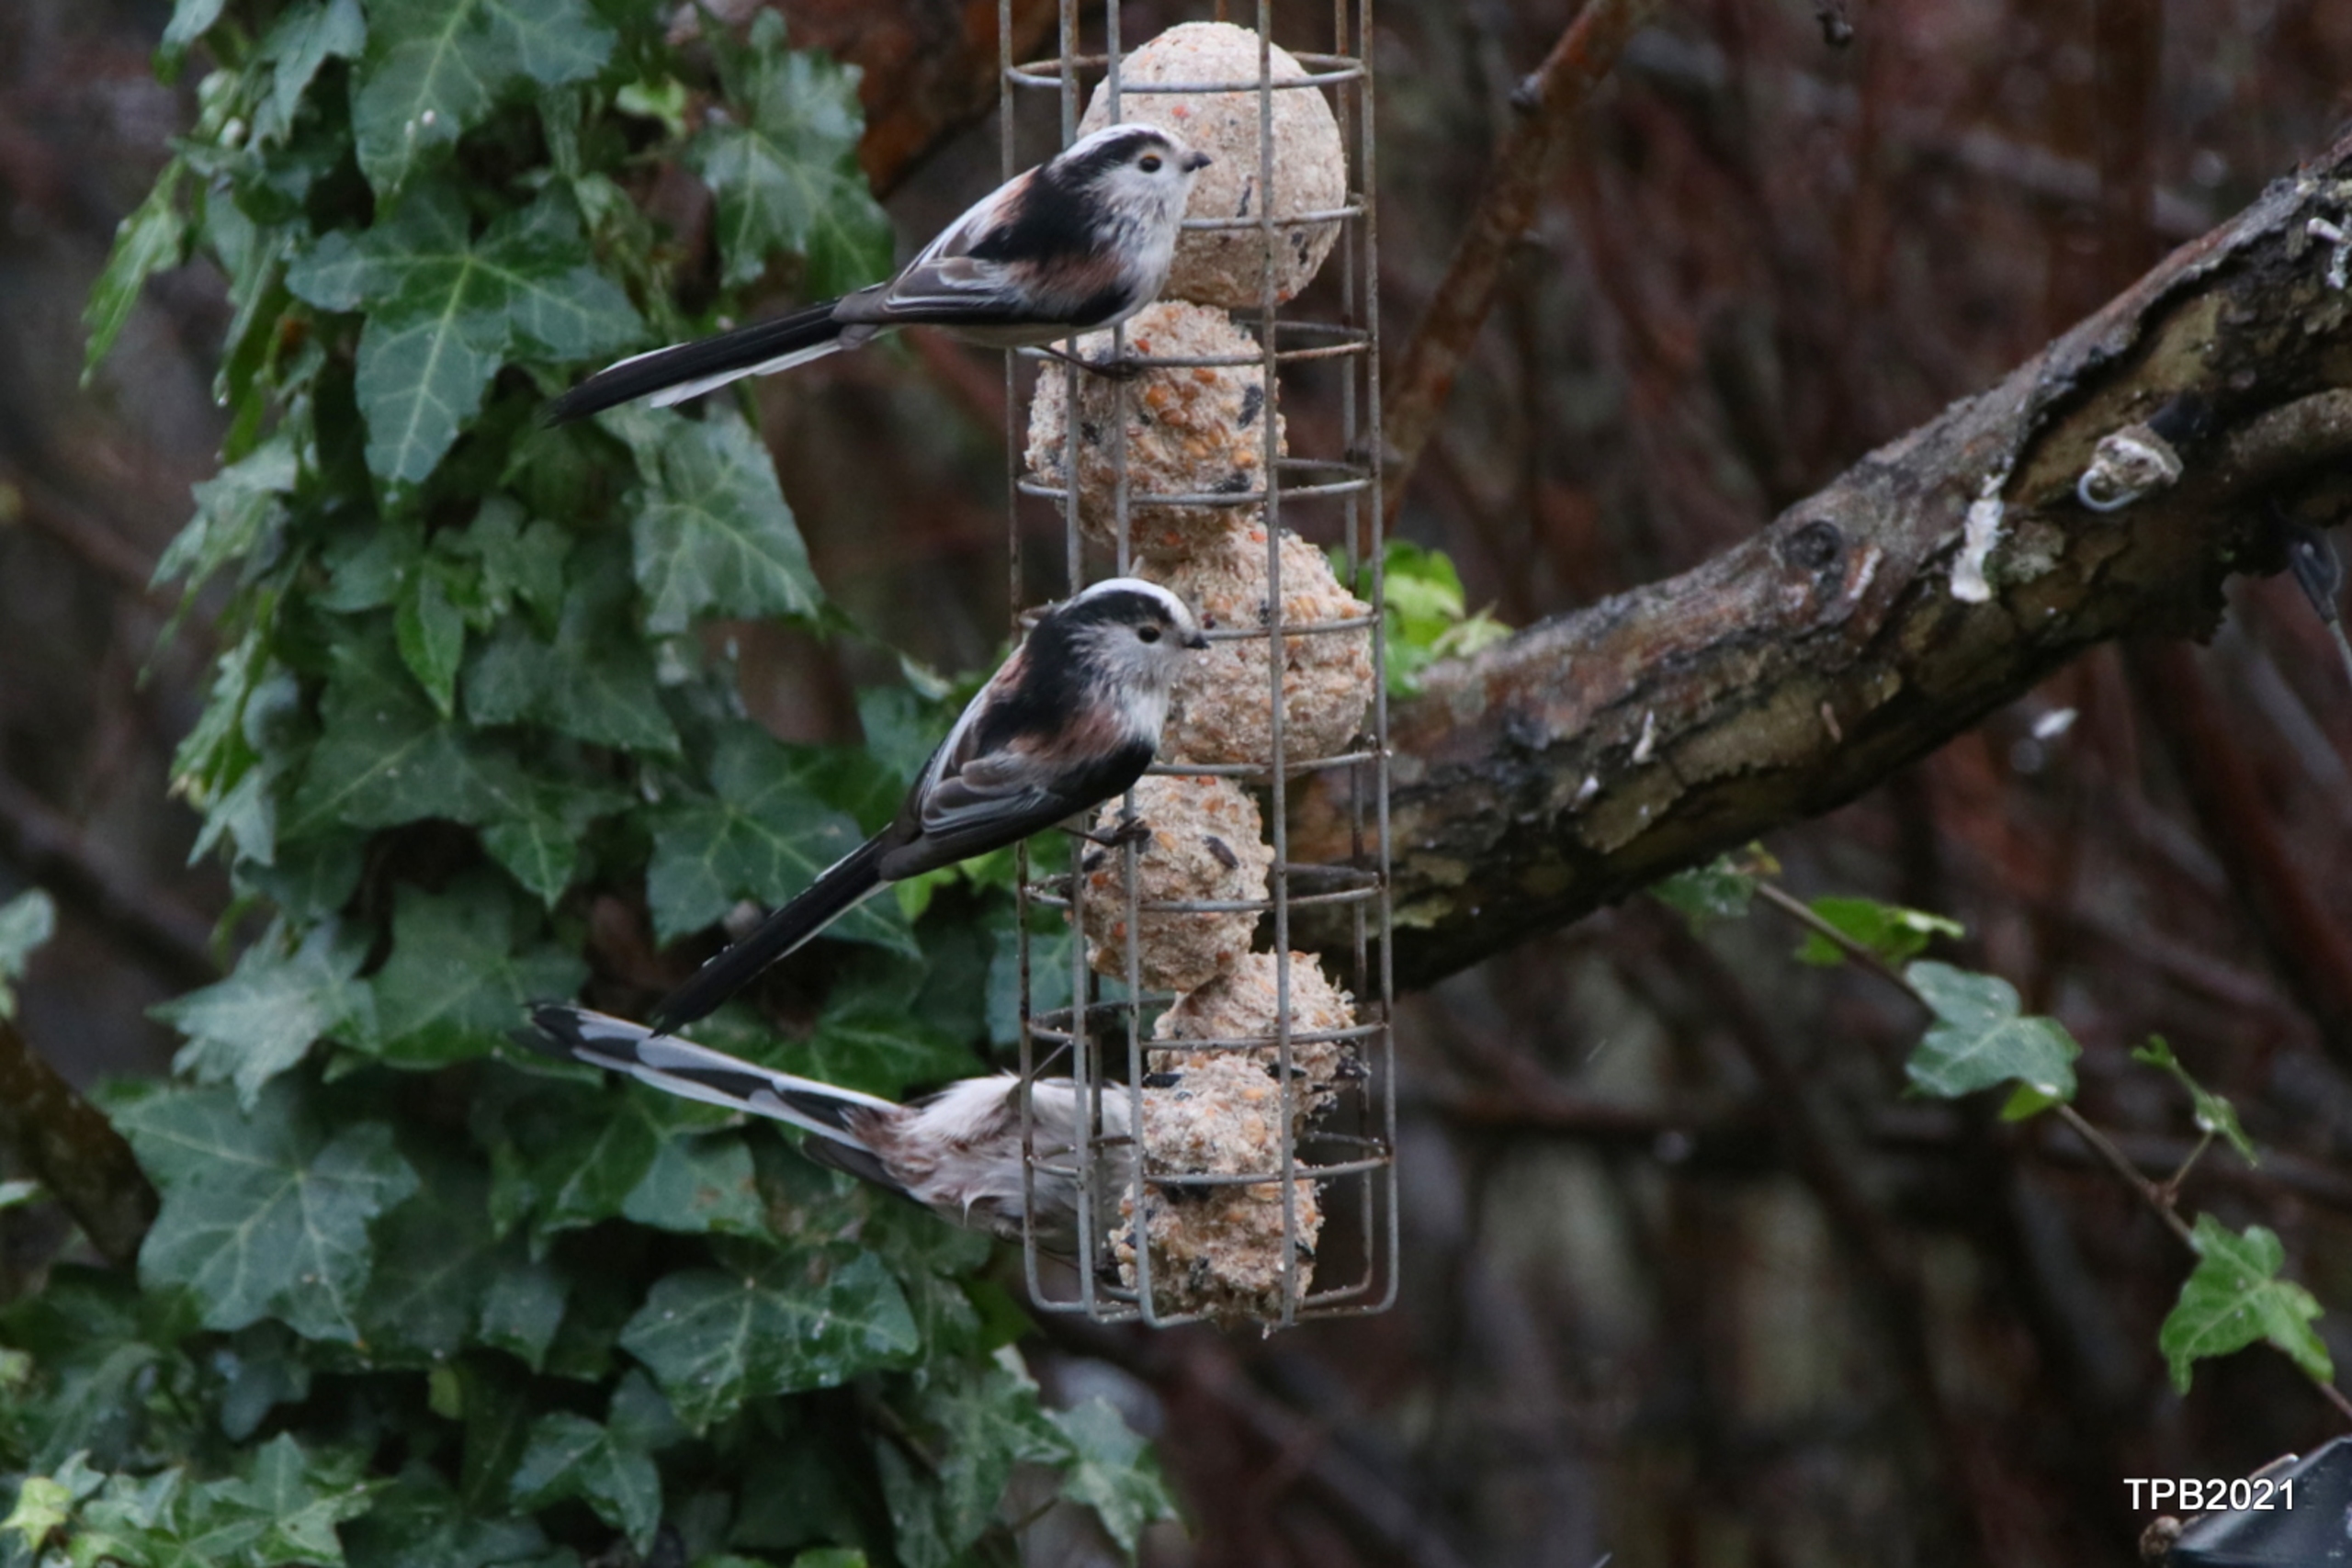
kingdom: Animalia
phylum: Chordata
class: Aves
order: Passeriformes
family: Aegithalidae
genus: Aegithalos
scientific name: Aegithalos caudatus
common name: Halemejse
